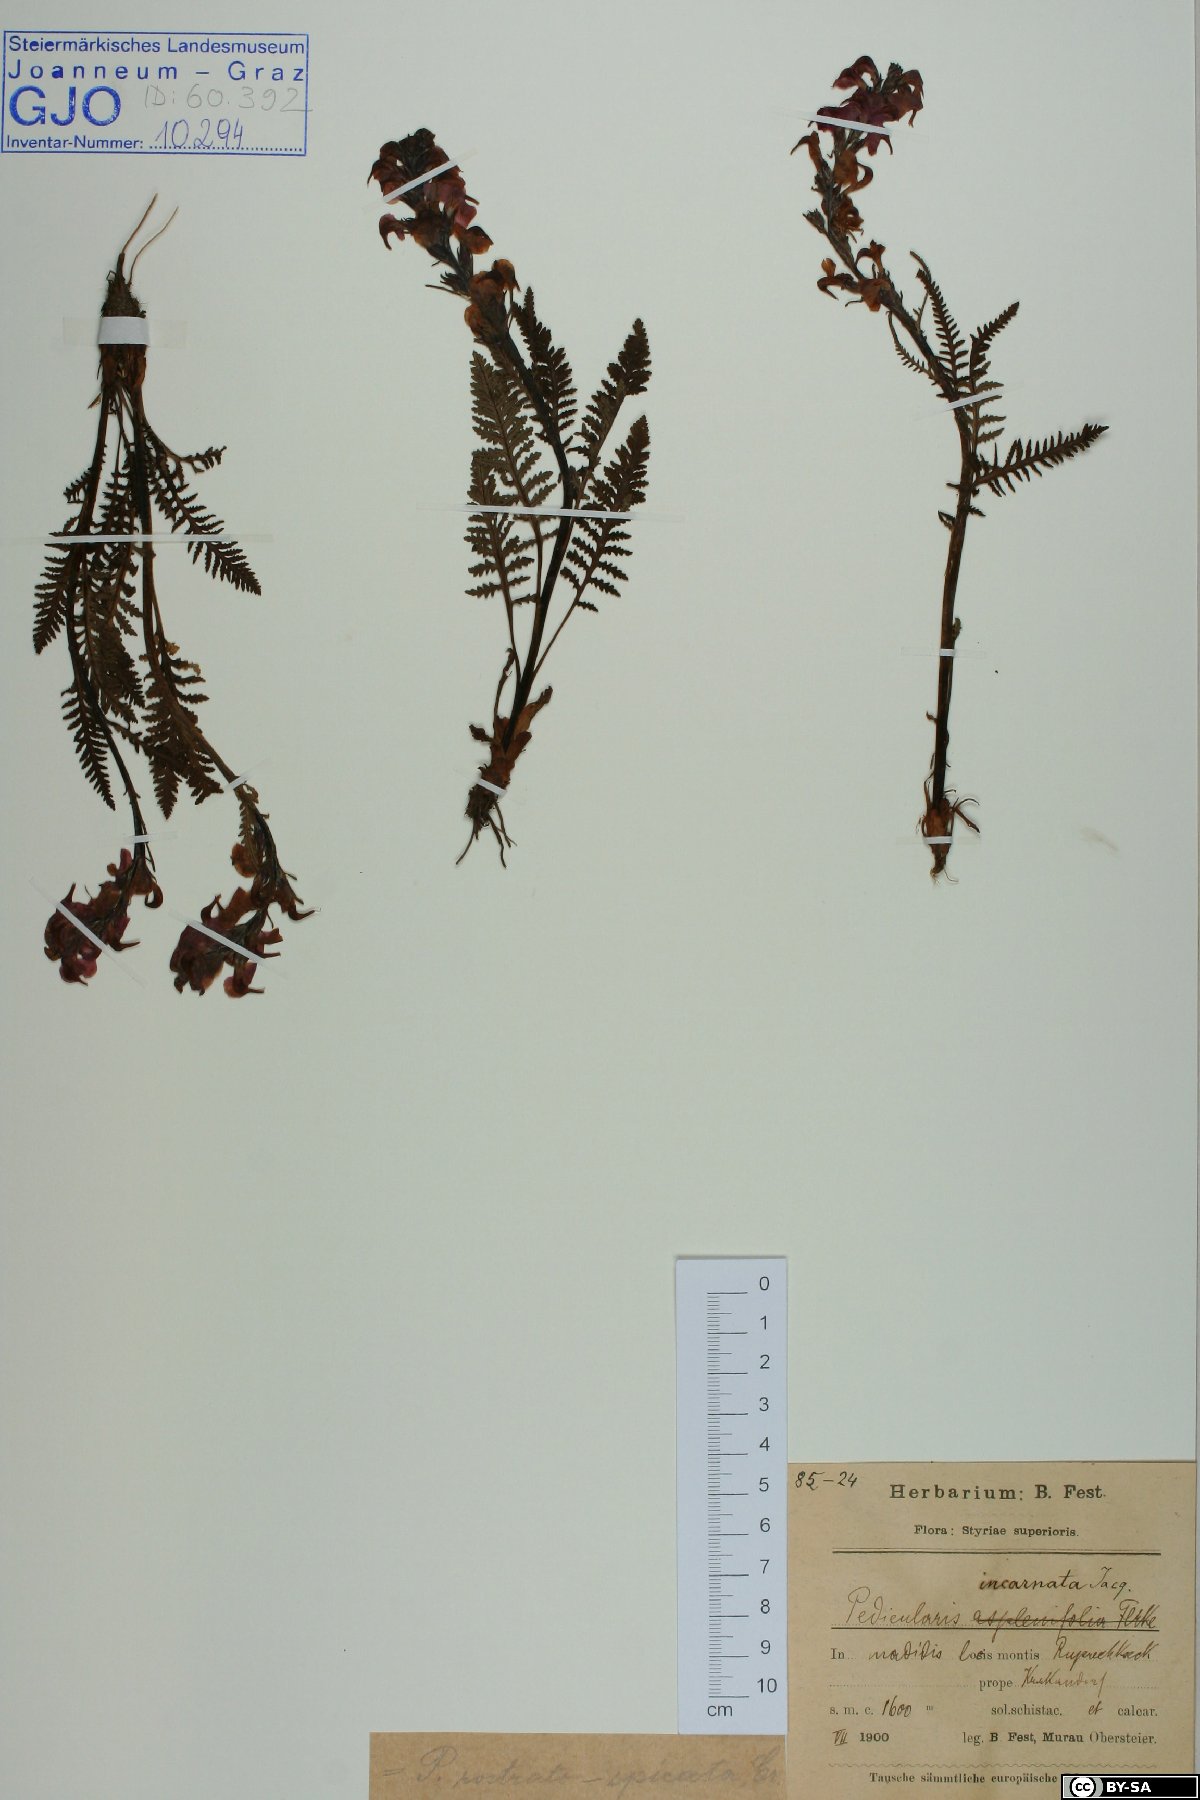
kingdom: Plantae
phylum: Tracheophyta
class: Magnoliopsida
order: Lamiales
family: Orobanchaceae
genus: Pedicularis
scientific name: Pedicularis rostratospicata
